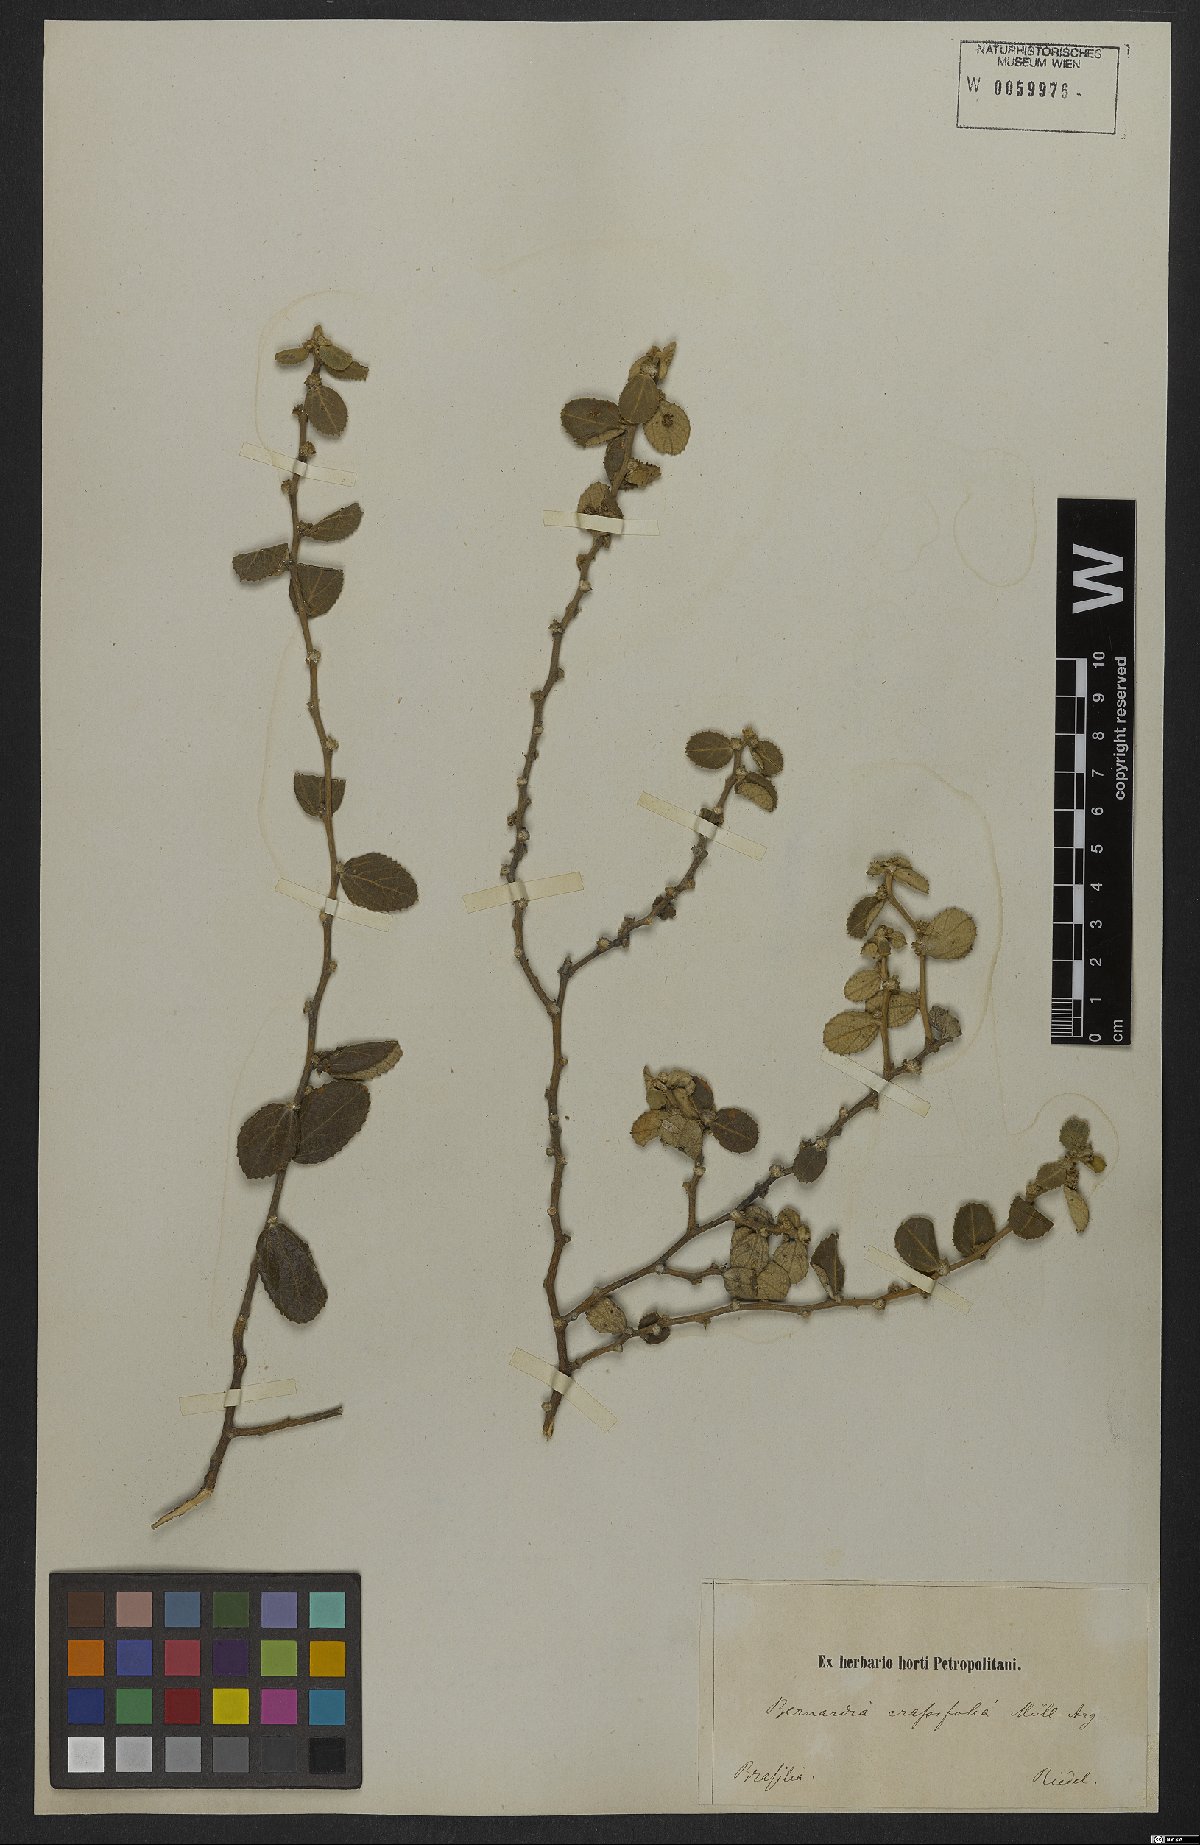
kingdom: Plantae
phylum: Tracheophyta
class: Magnoliopsida
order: Malpighiales
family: Euphorbiaceae
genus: Bernardia
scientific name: Bernardia crassifolia
